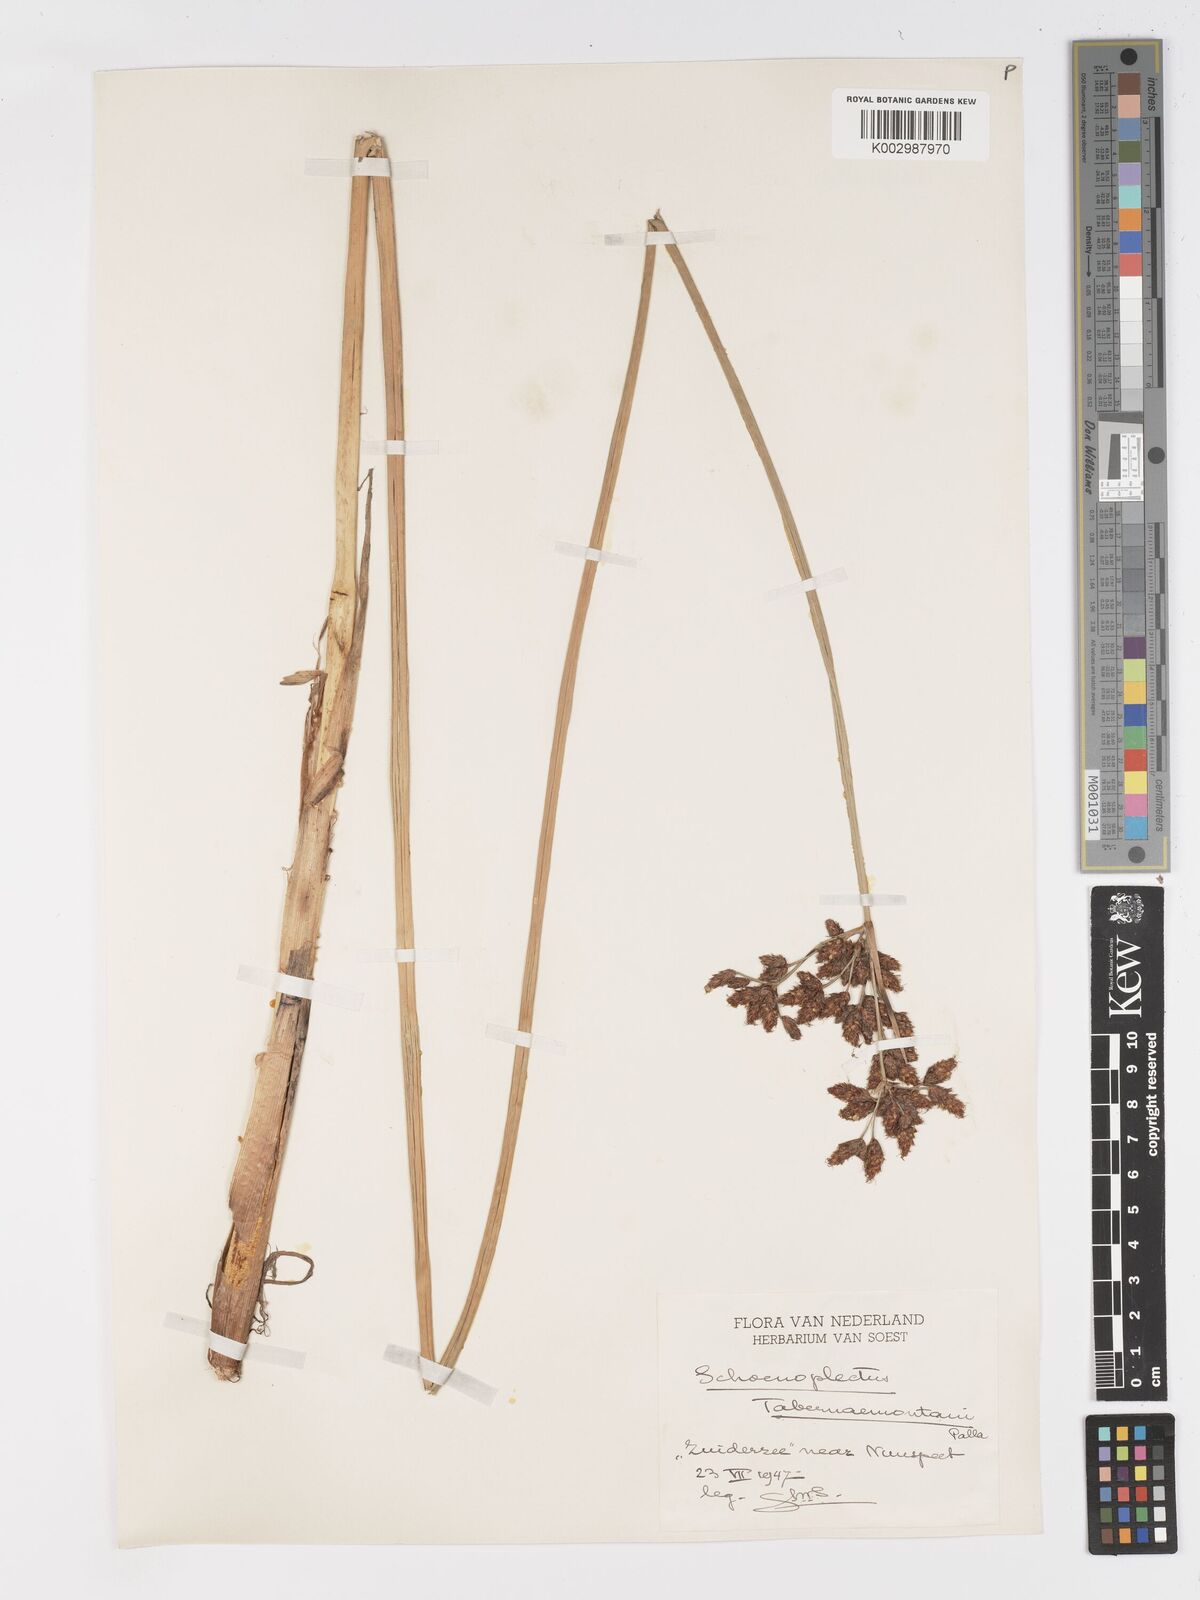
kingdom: Plantae
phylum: Tracheophyta
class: Liliopsida
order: Poales
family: Cyperaceae
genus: Schoenoplectus
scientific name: Schoenoplectus tabernaemontani
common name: Grey club-rush
